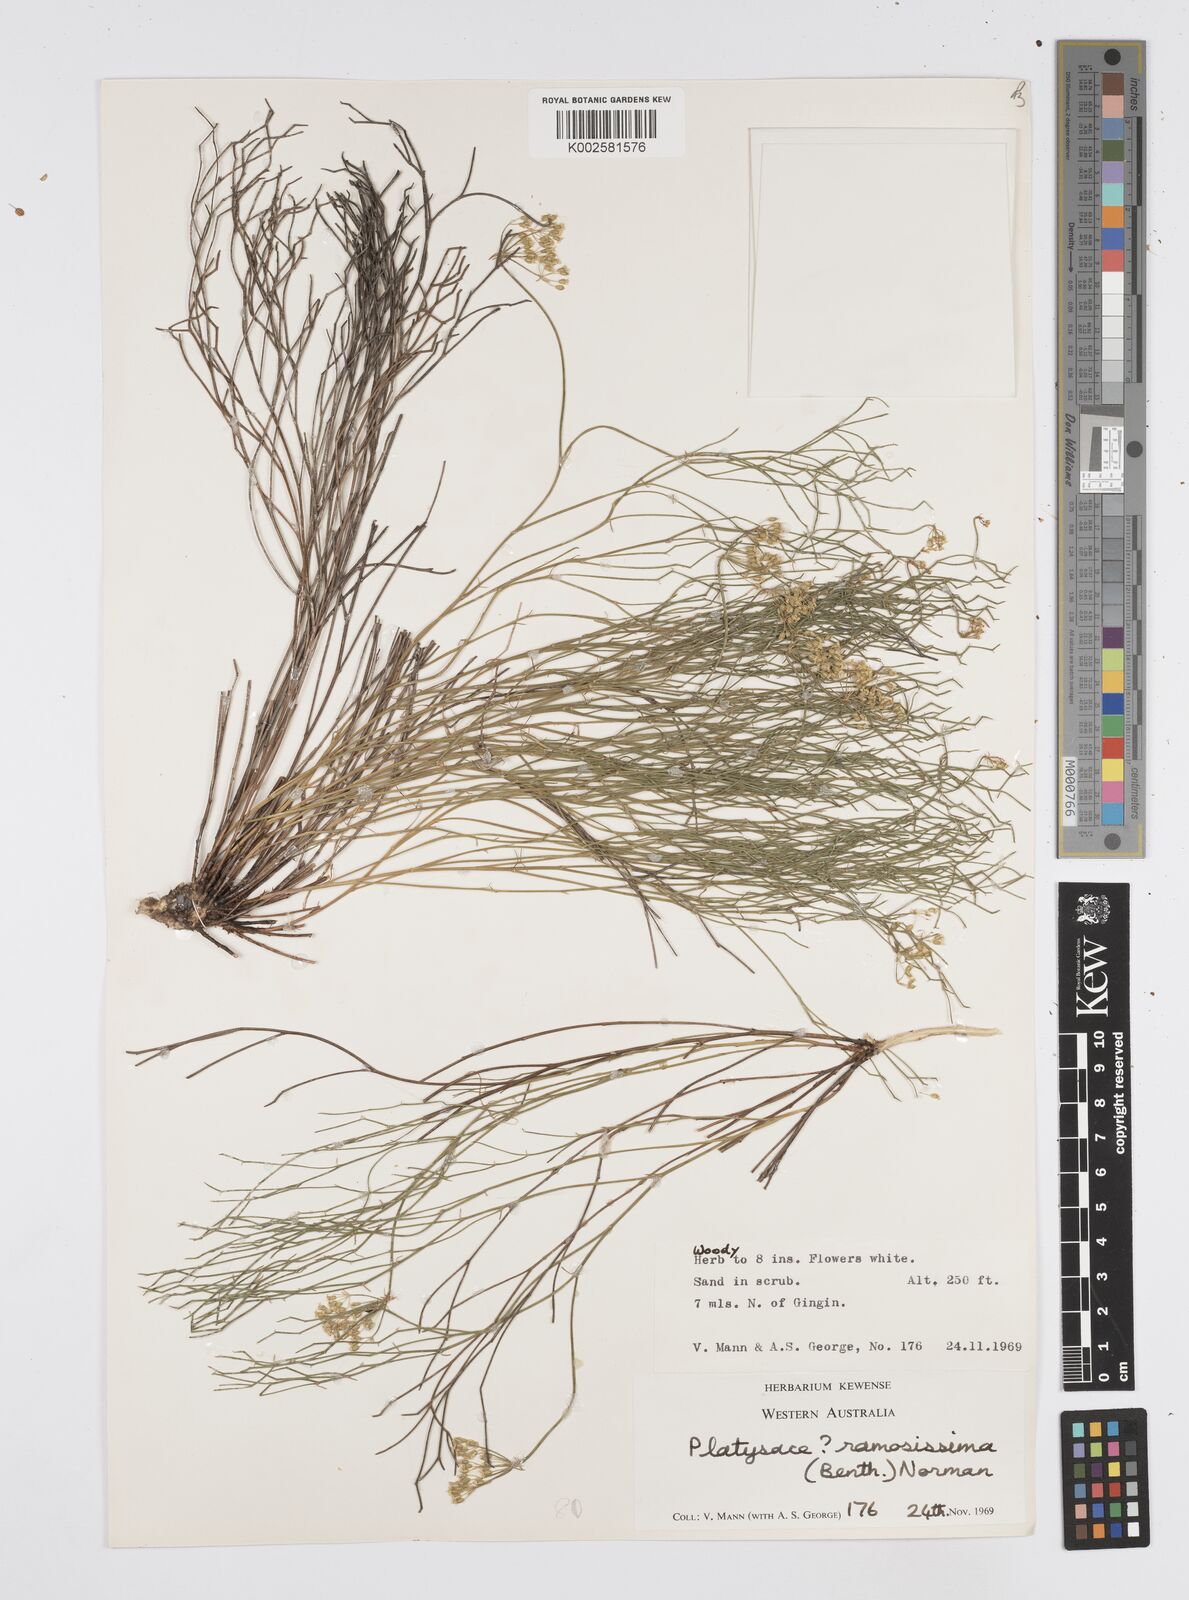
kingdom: Plantae
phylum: Tracheophyta
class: Magnoliopsida
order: Apiales
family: Apiaceae
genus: Platysace
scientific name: Platysace ramosissima
